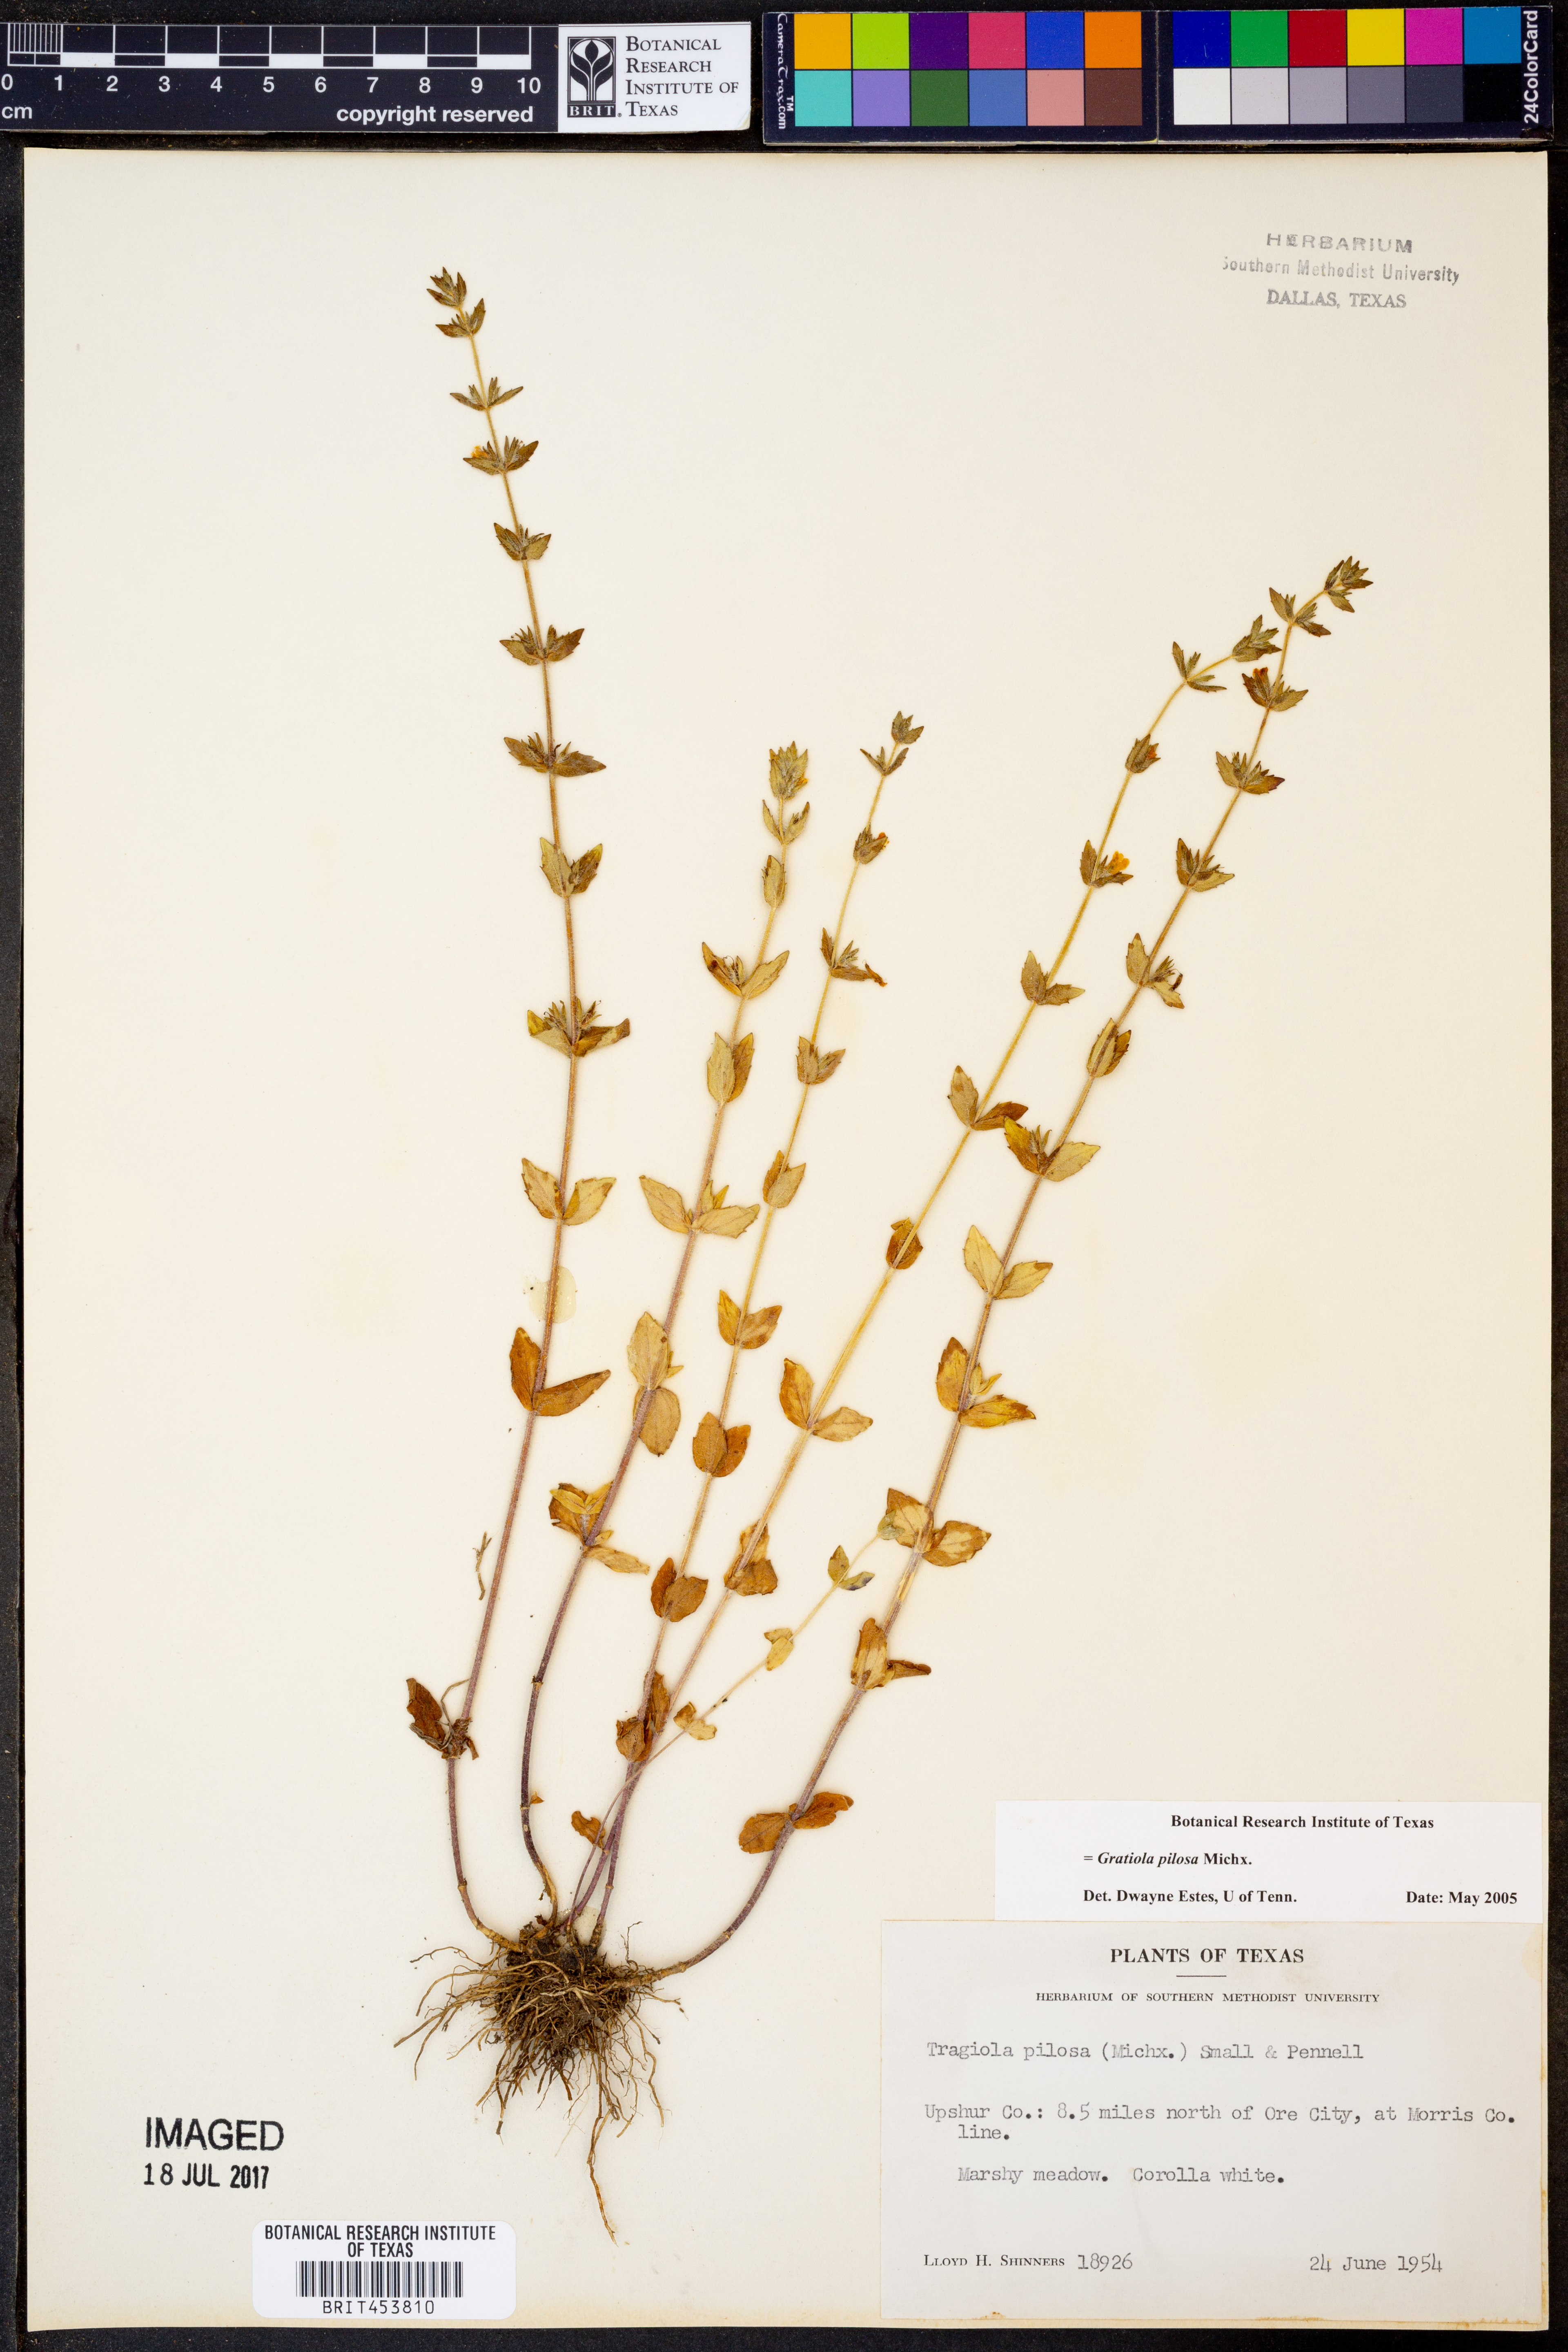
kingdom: Plantae
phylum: Tracheophyta
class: Magnoliopsida
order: Lamiales
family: Plantaginaceae
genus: Gratiola
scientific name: Gratiola pilosa
